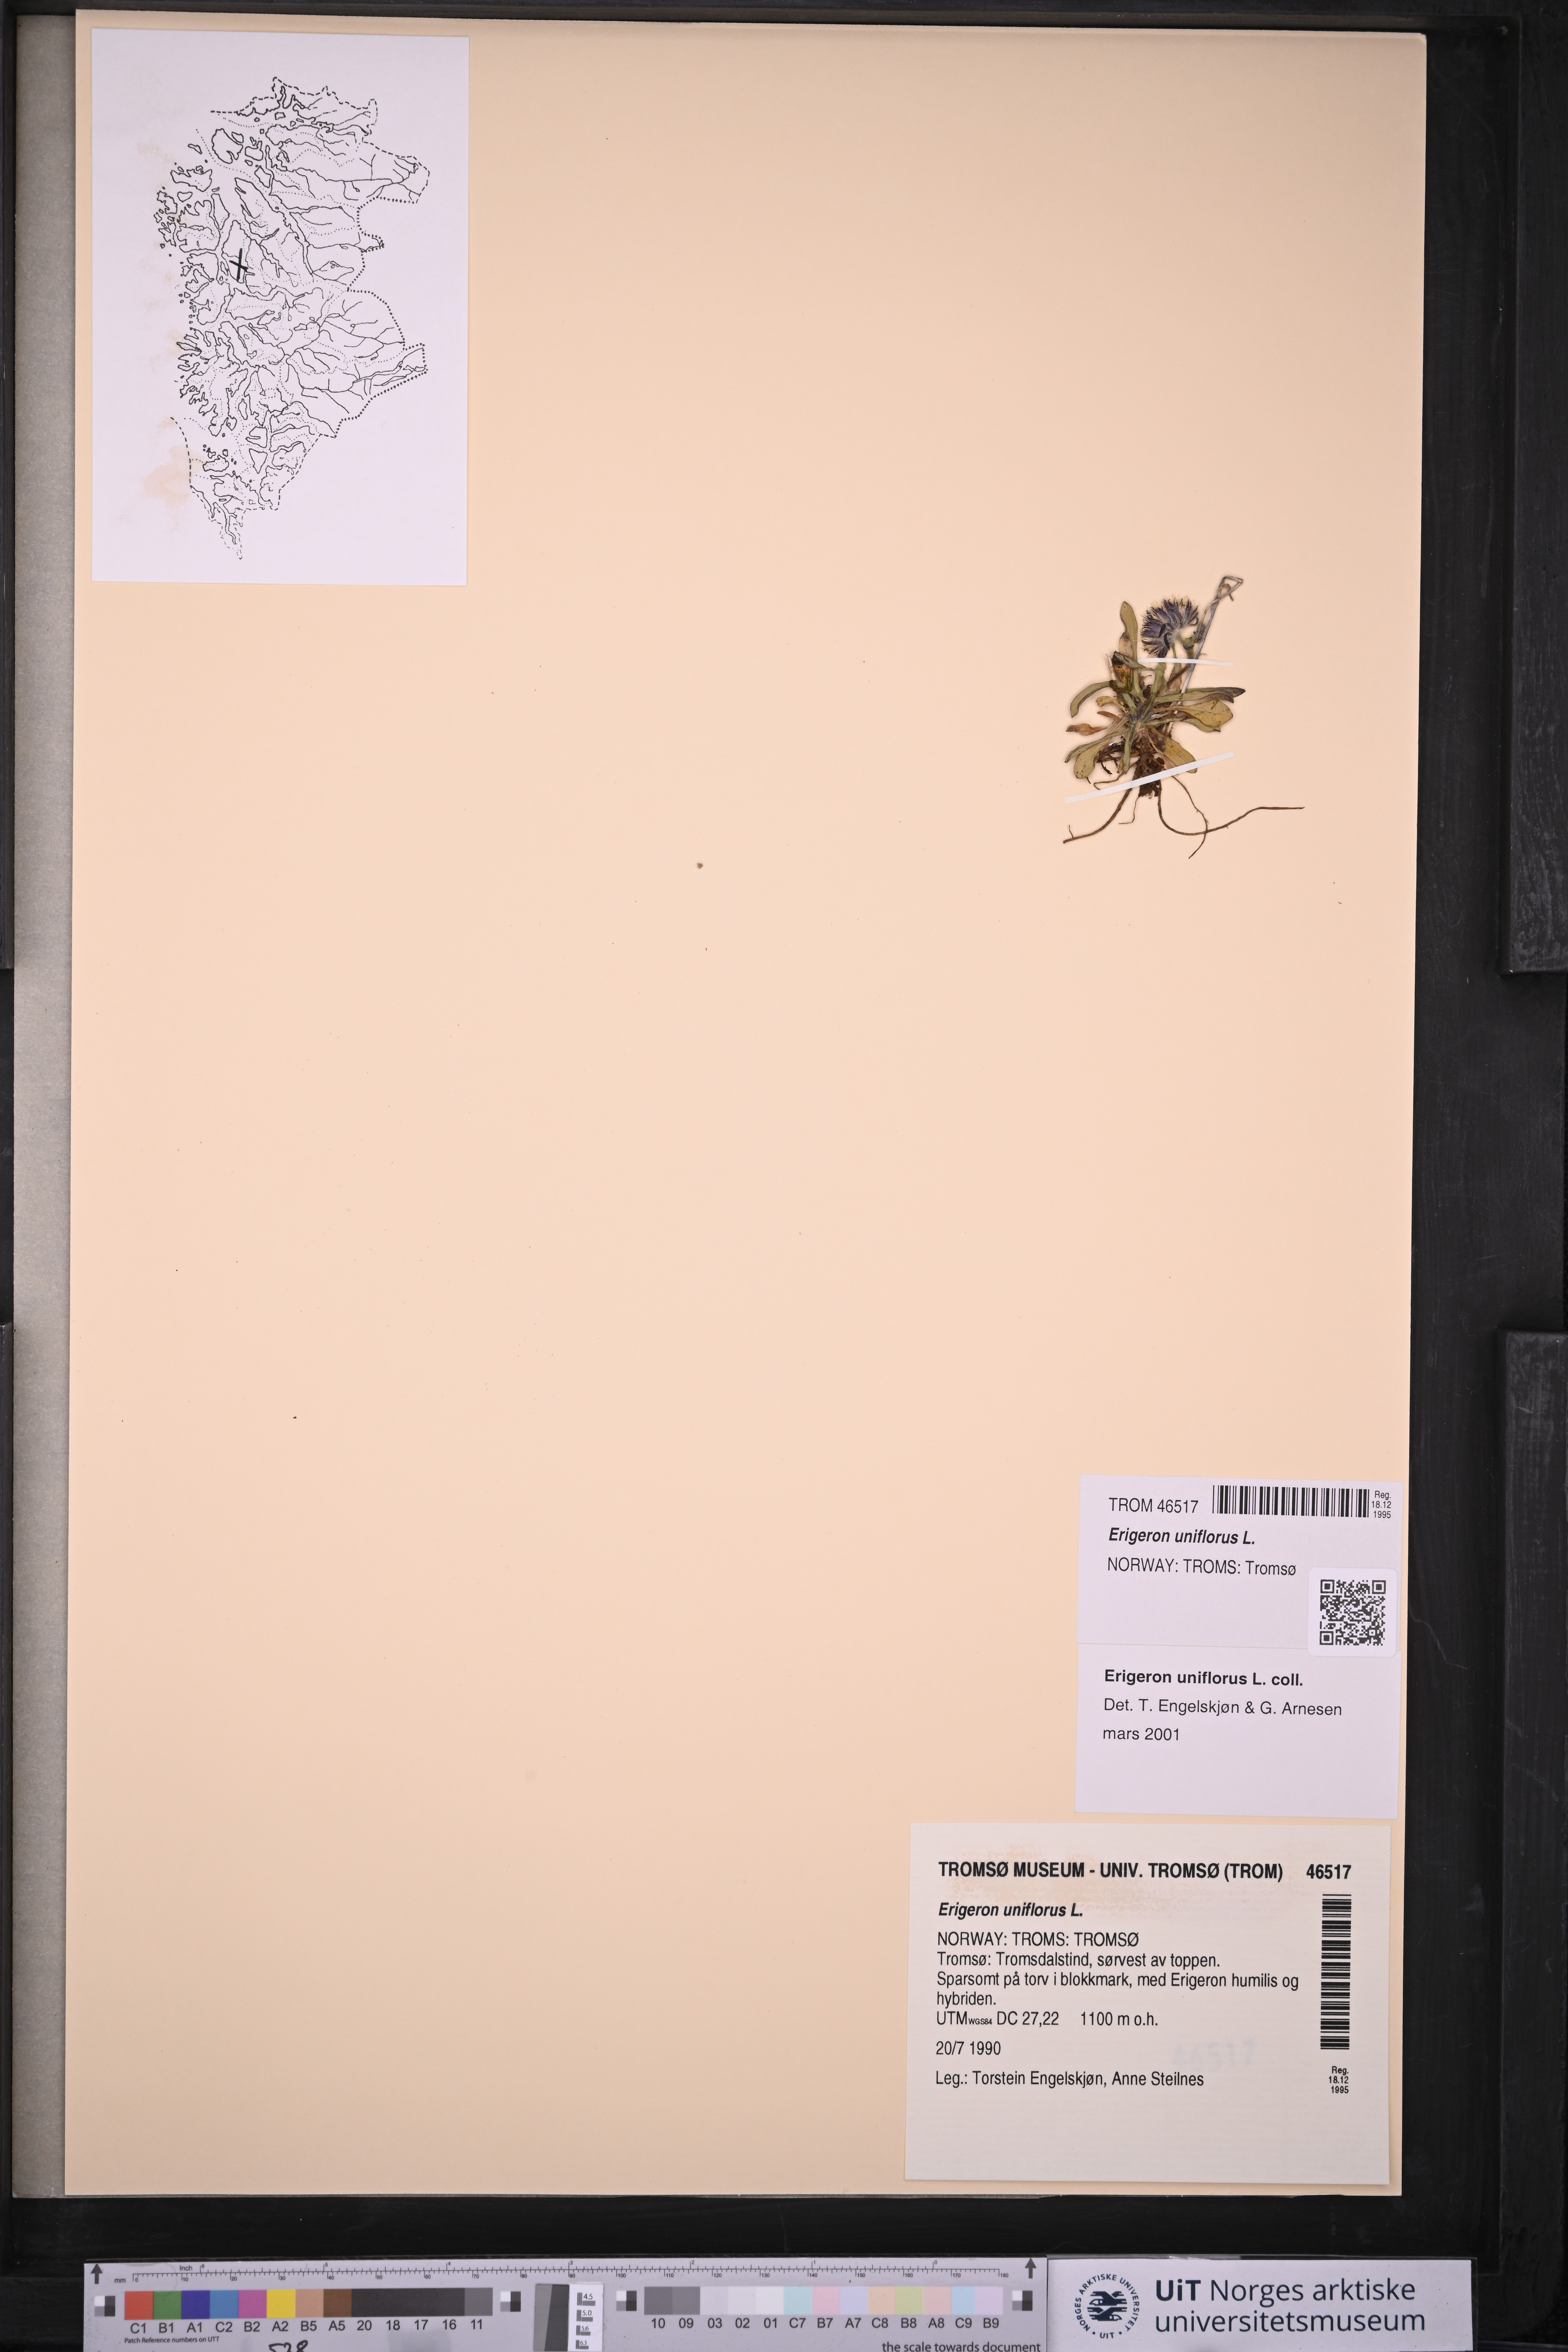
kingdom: Plantae
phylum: Tracheophyta
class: Magnoliopsida
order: Asterales
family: Asteraceae
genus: Erigeron
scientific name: Erigeron uniflorus
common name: Northern daisy
